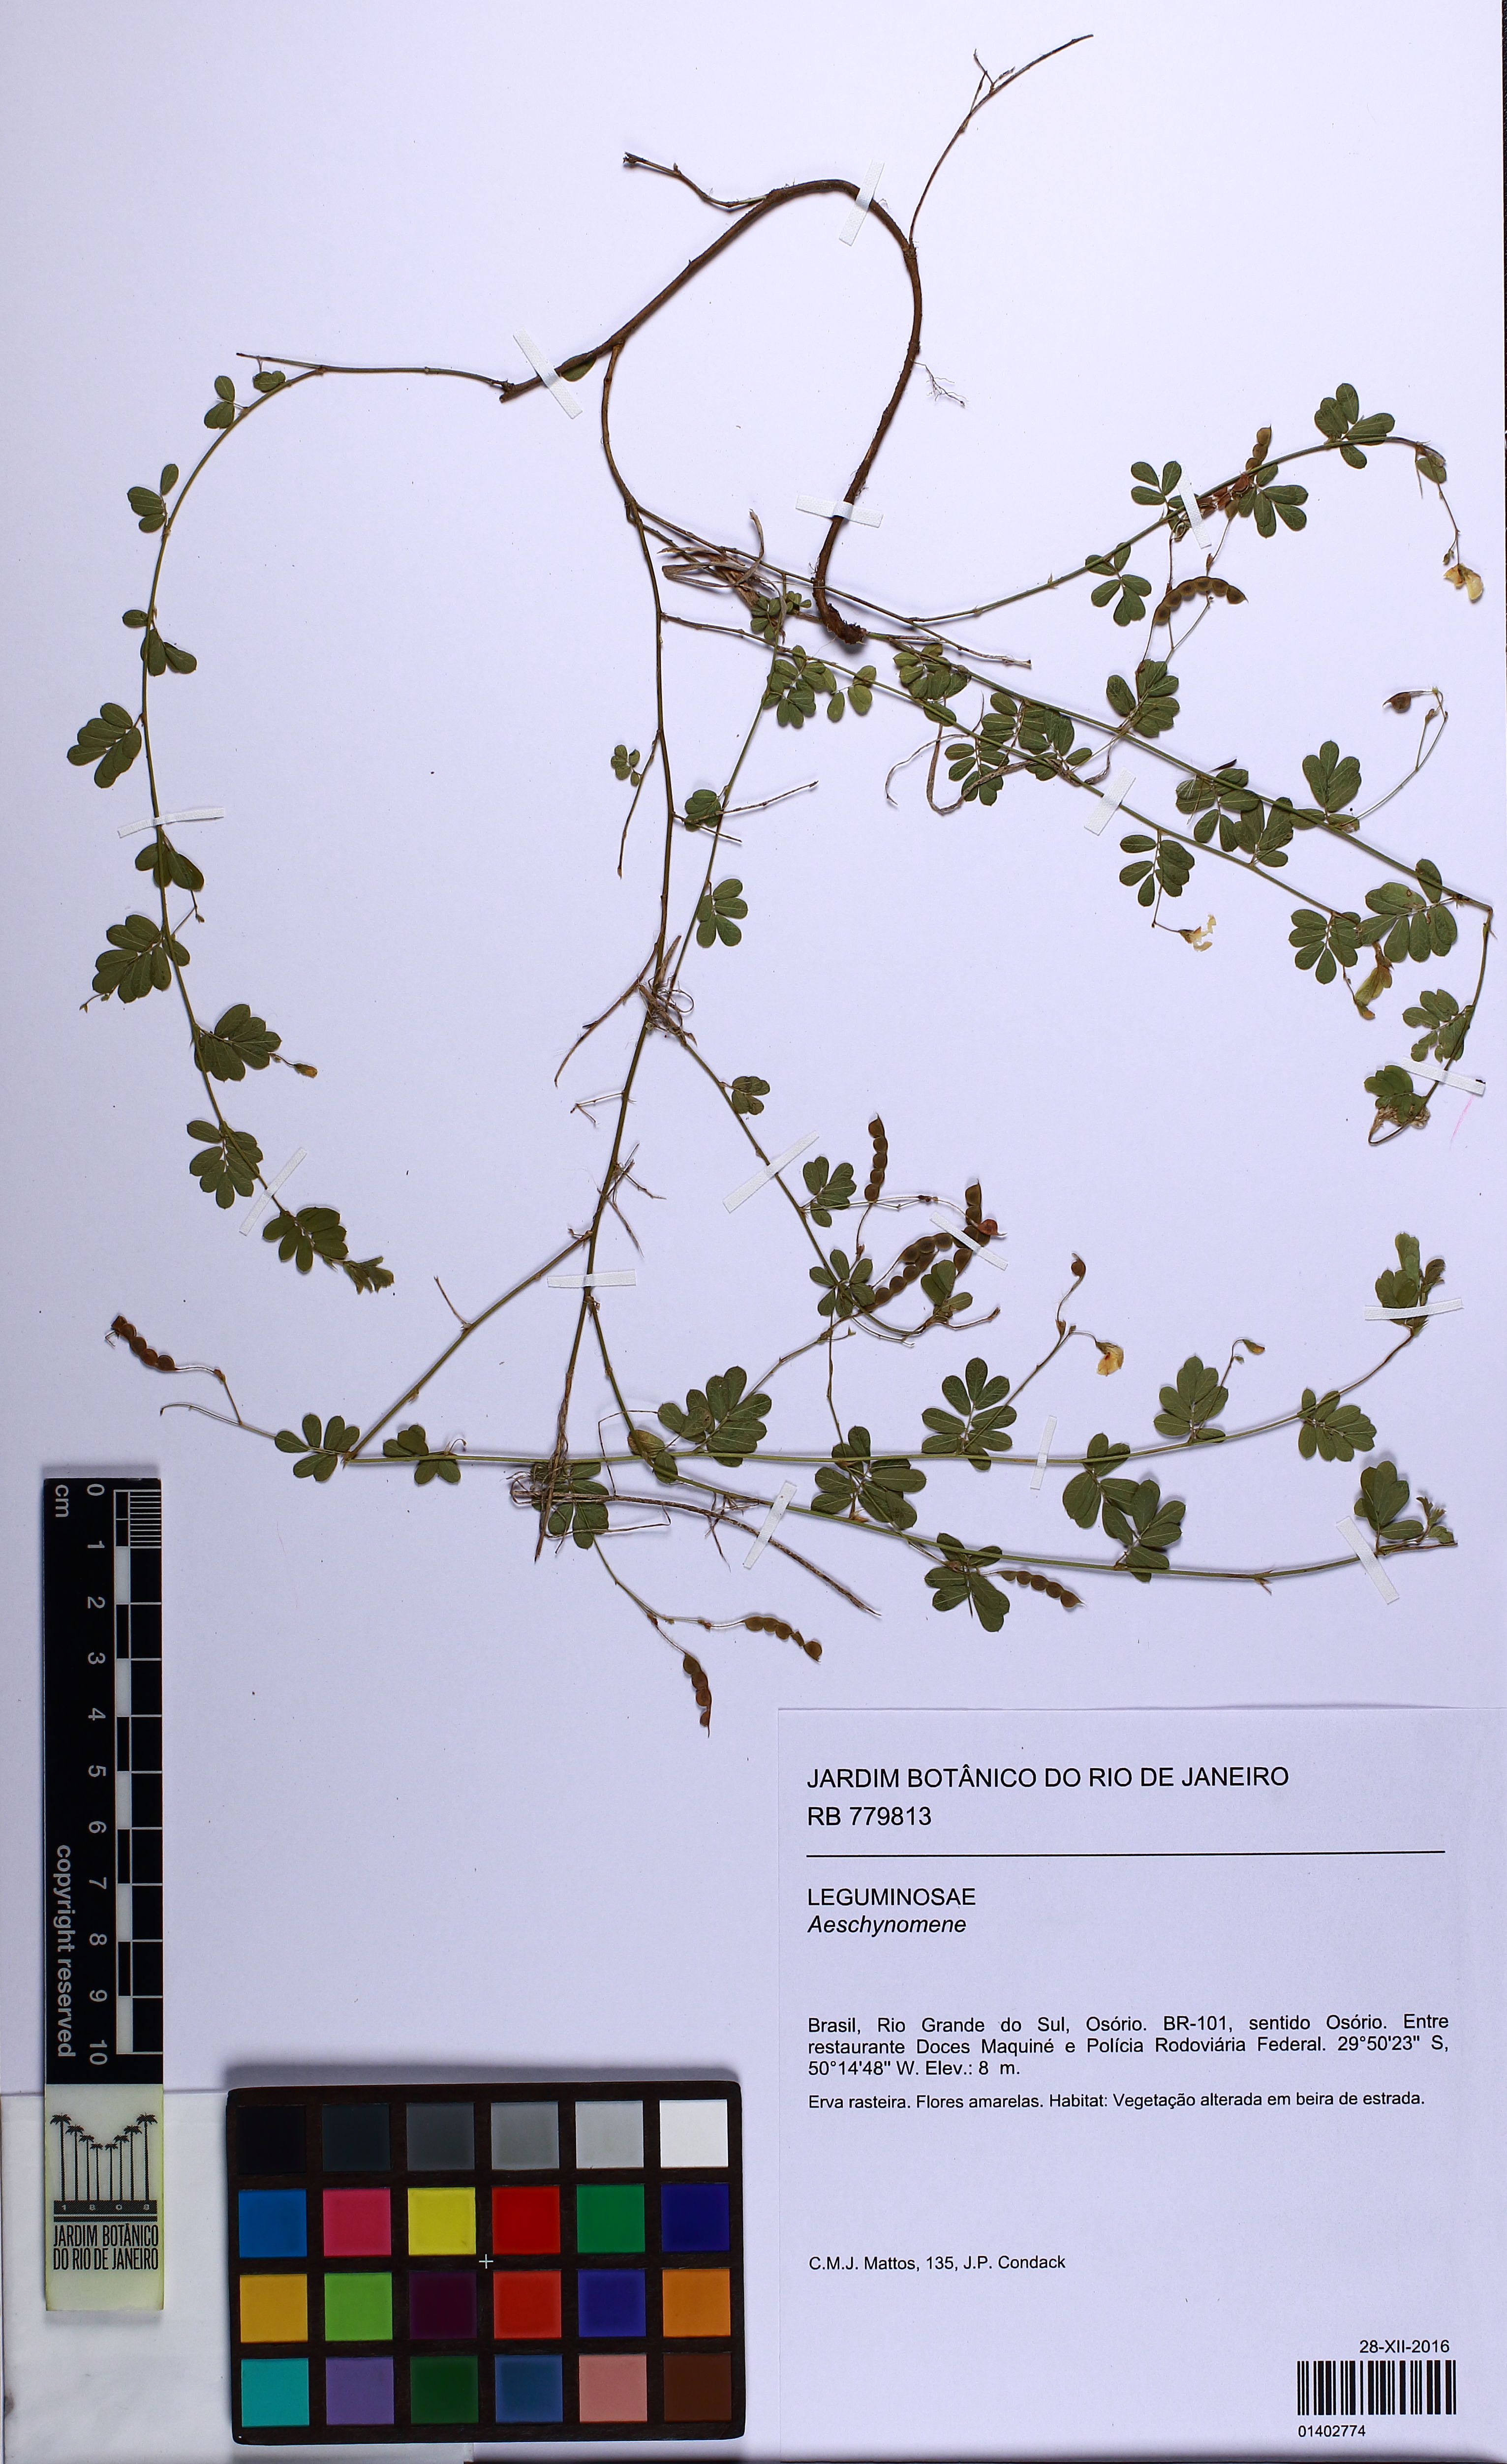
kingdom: Plantae
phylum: Tracheophyta
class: Magnoliopsida
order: Fabales
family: Fabaceae
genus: Aeschynomene
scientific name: Aeschynomene
